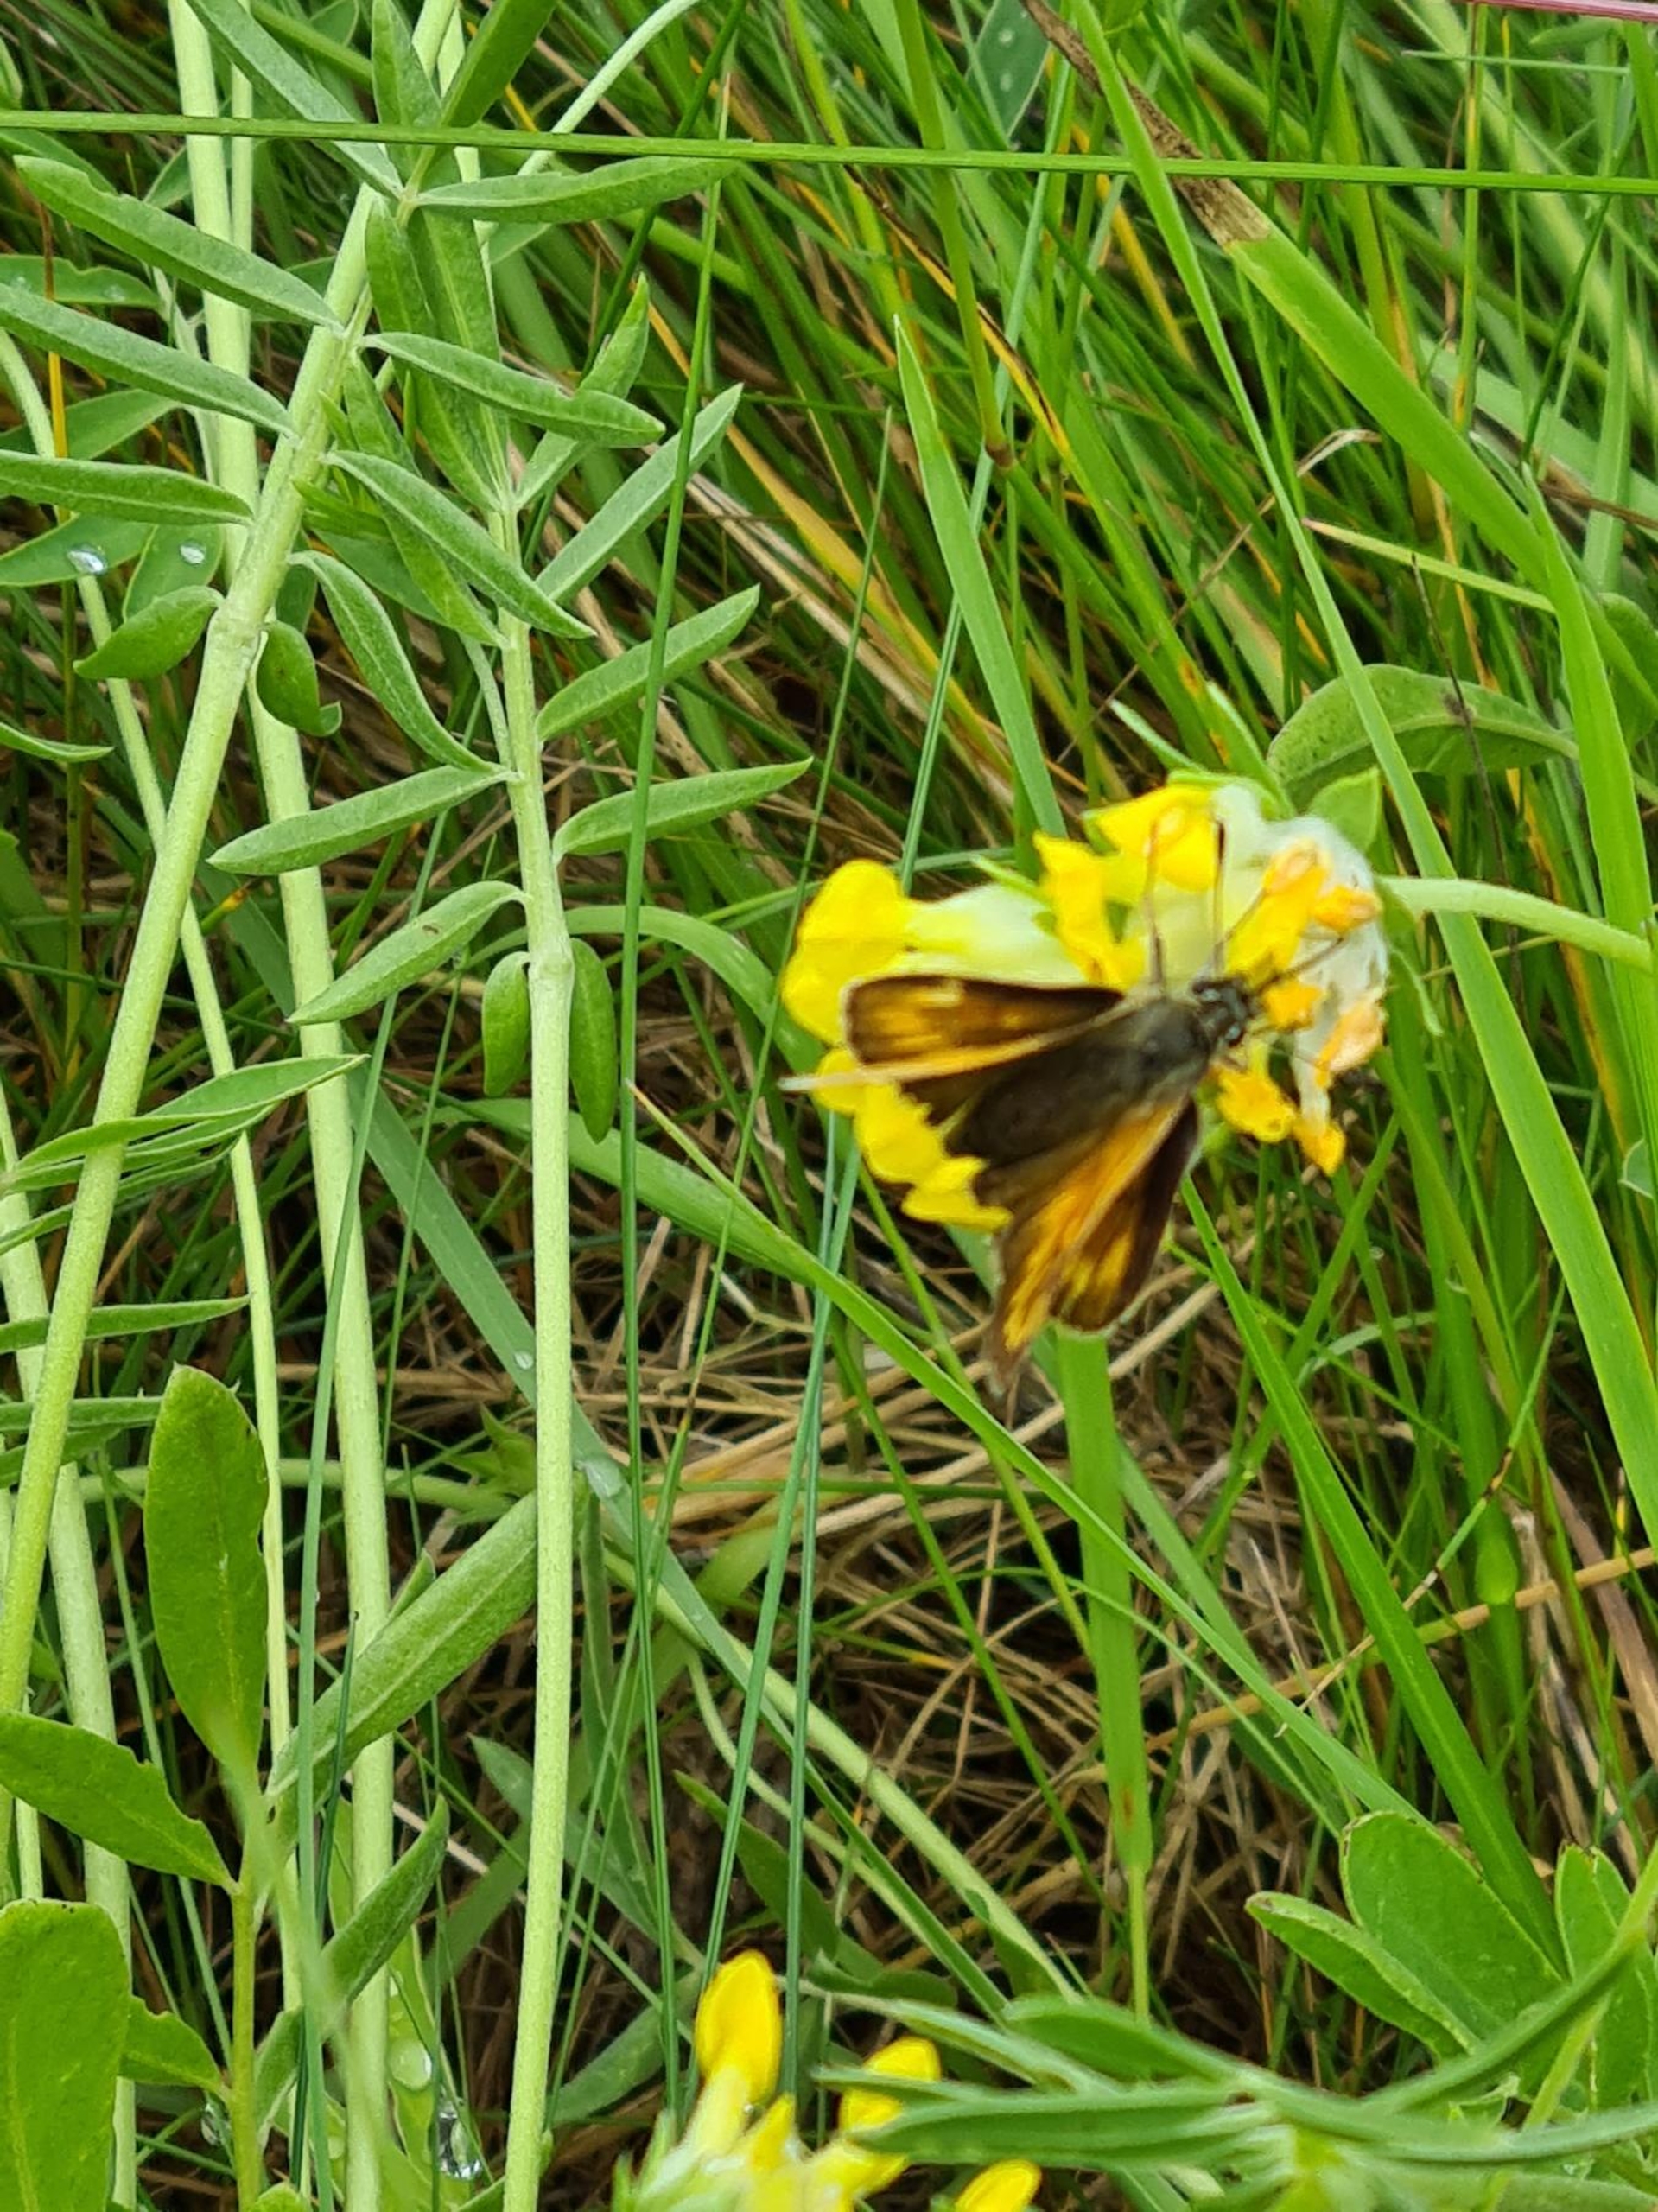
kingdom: Animalia
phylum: Arthropoda
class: Insecta
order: Lepidoptera
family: Hesperiidae
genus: Ochlodes
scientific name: Ochlodes venata
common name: Stor bredpande
